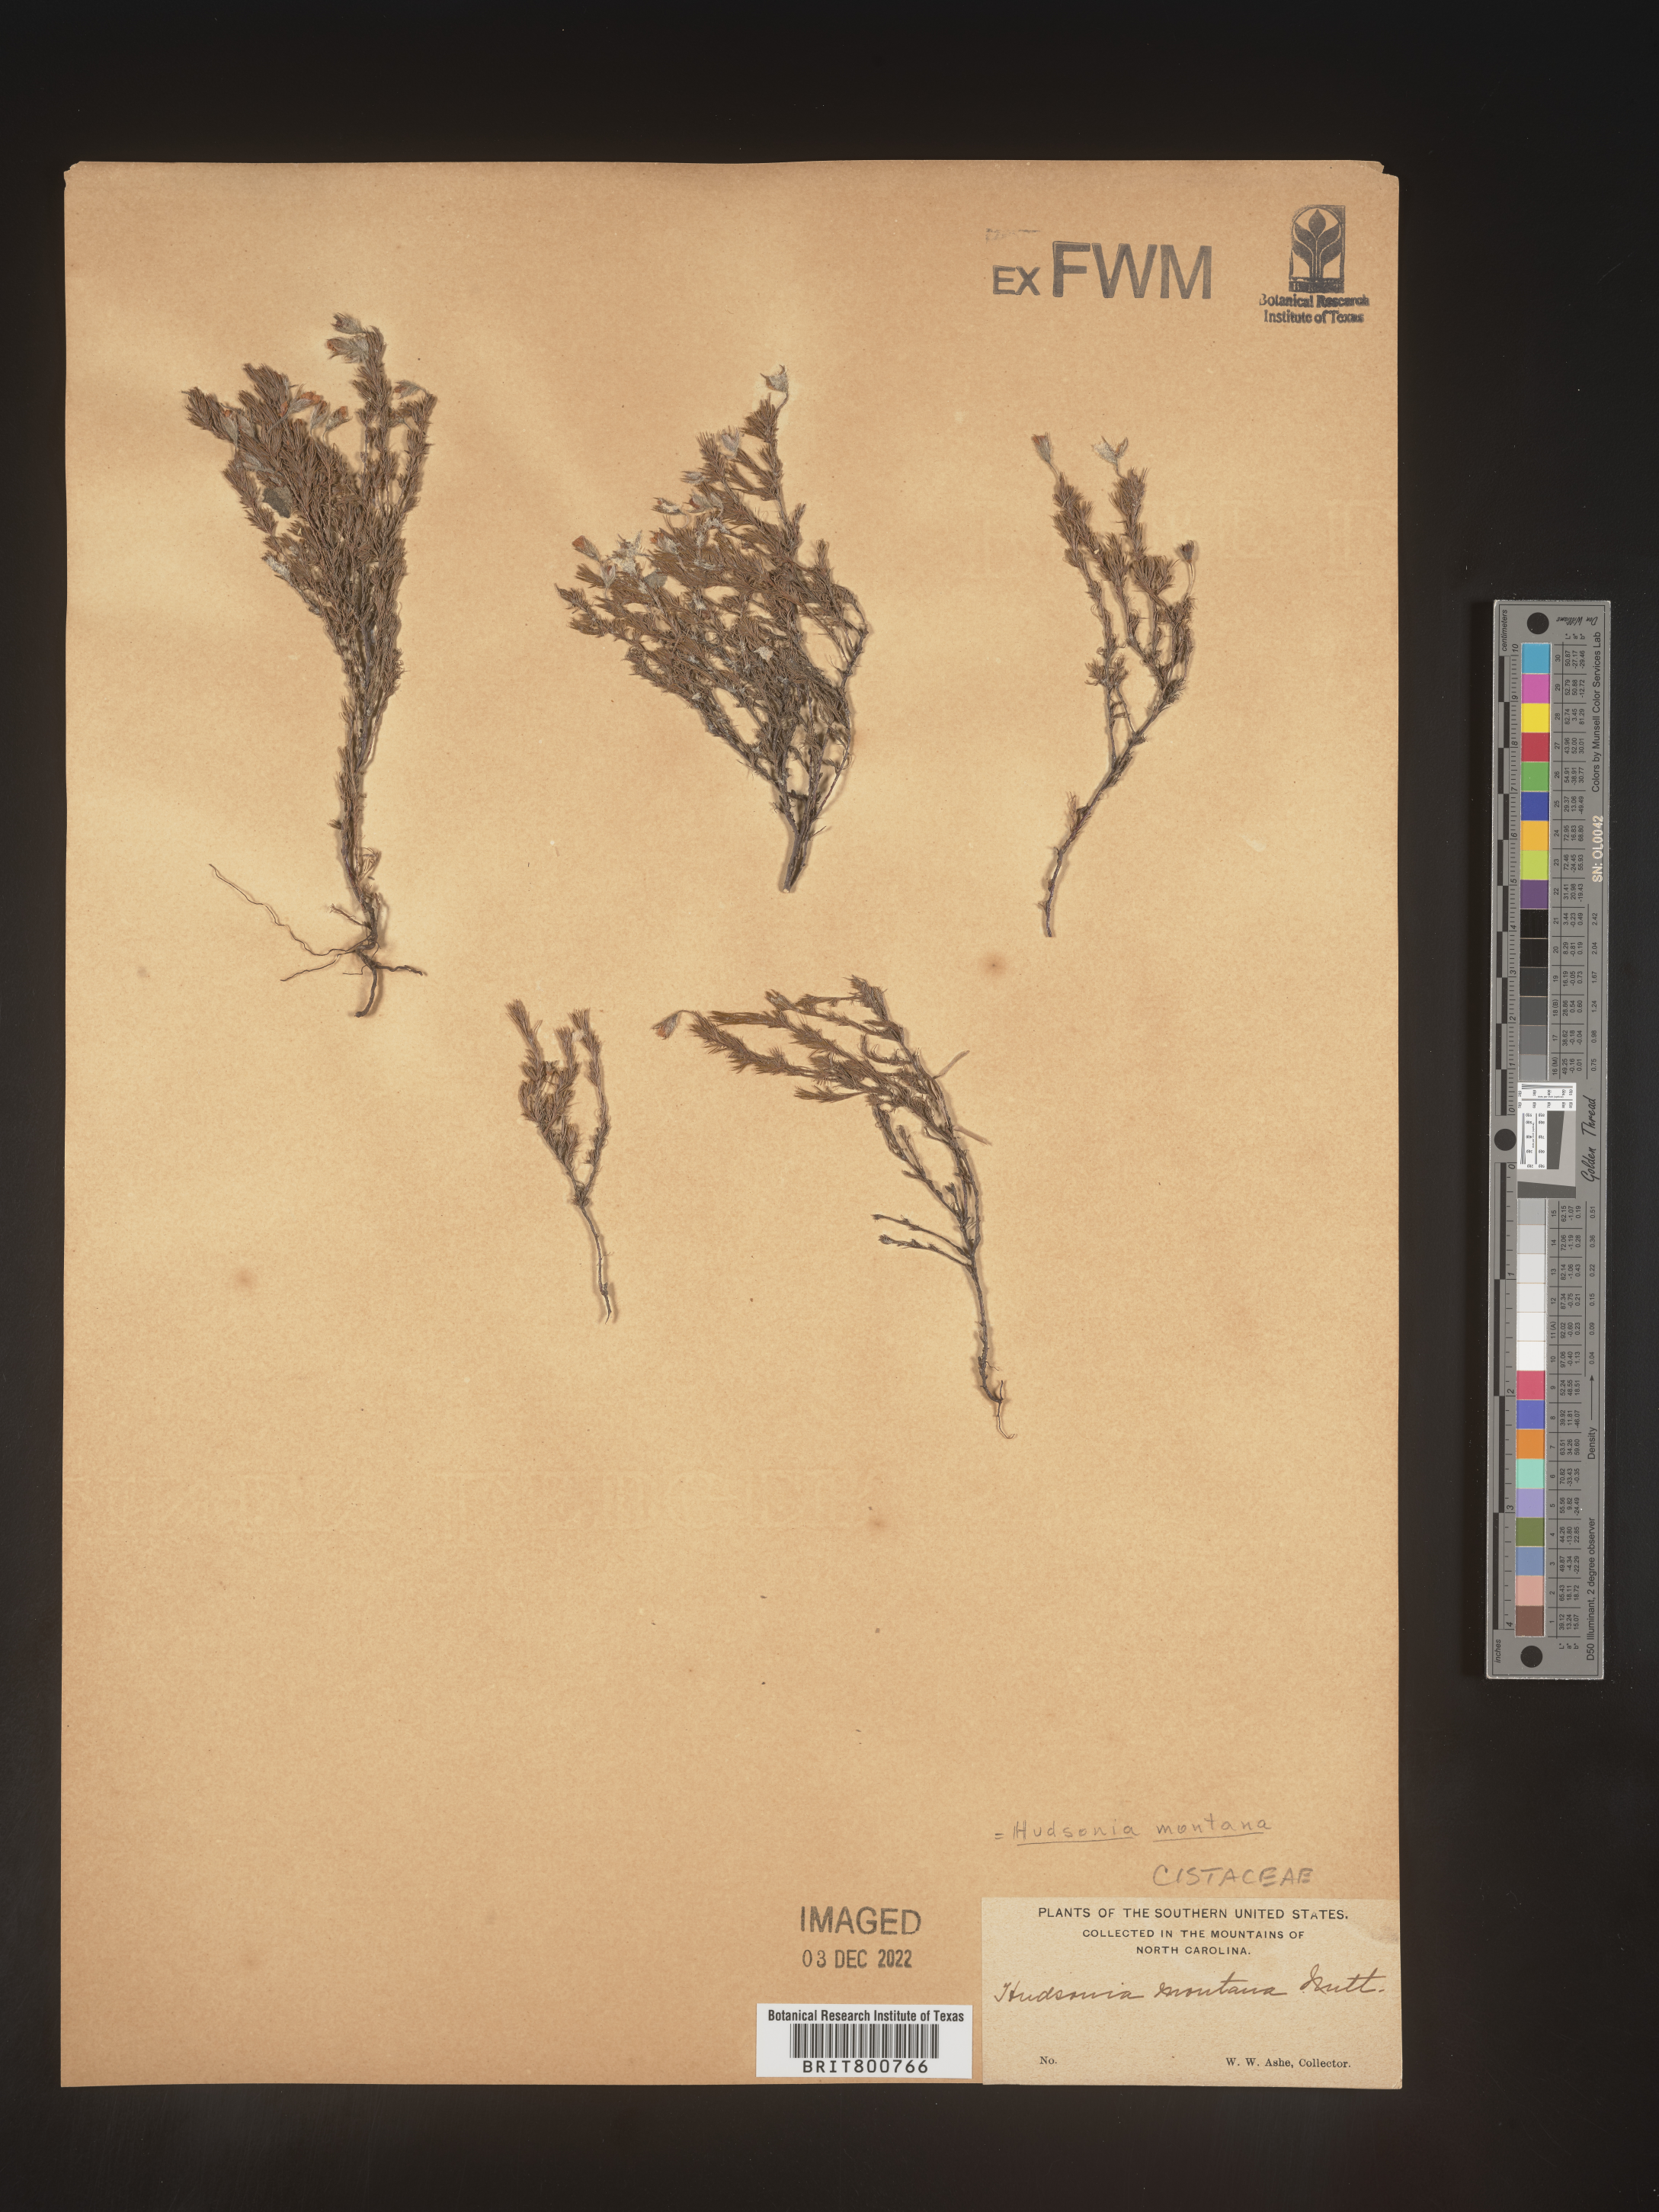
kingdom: Plantae
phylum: Tracheophyta
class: Magnoliopsida
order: Malvales
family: Cistaceae
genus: Hudsonia
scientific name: Hudsonia ericoides
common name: Golden-heather
